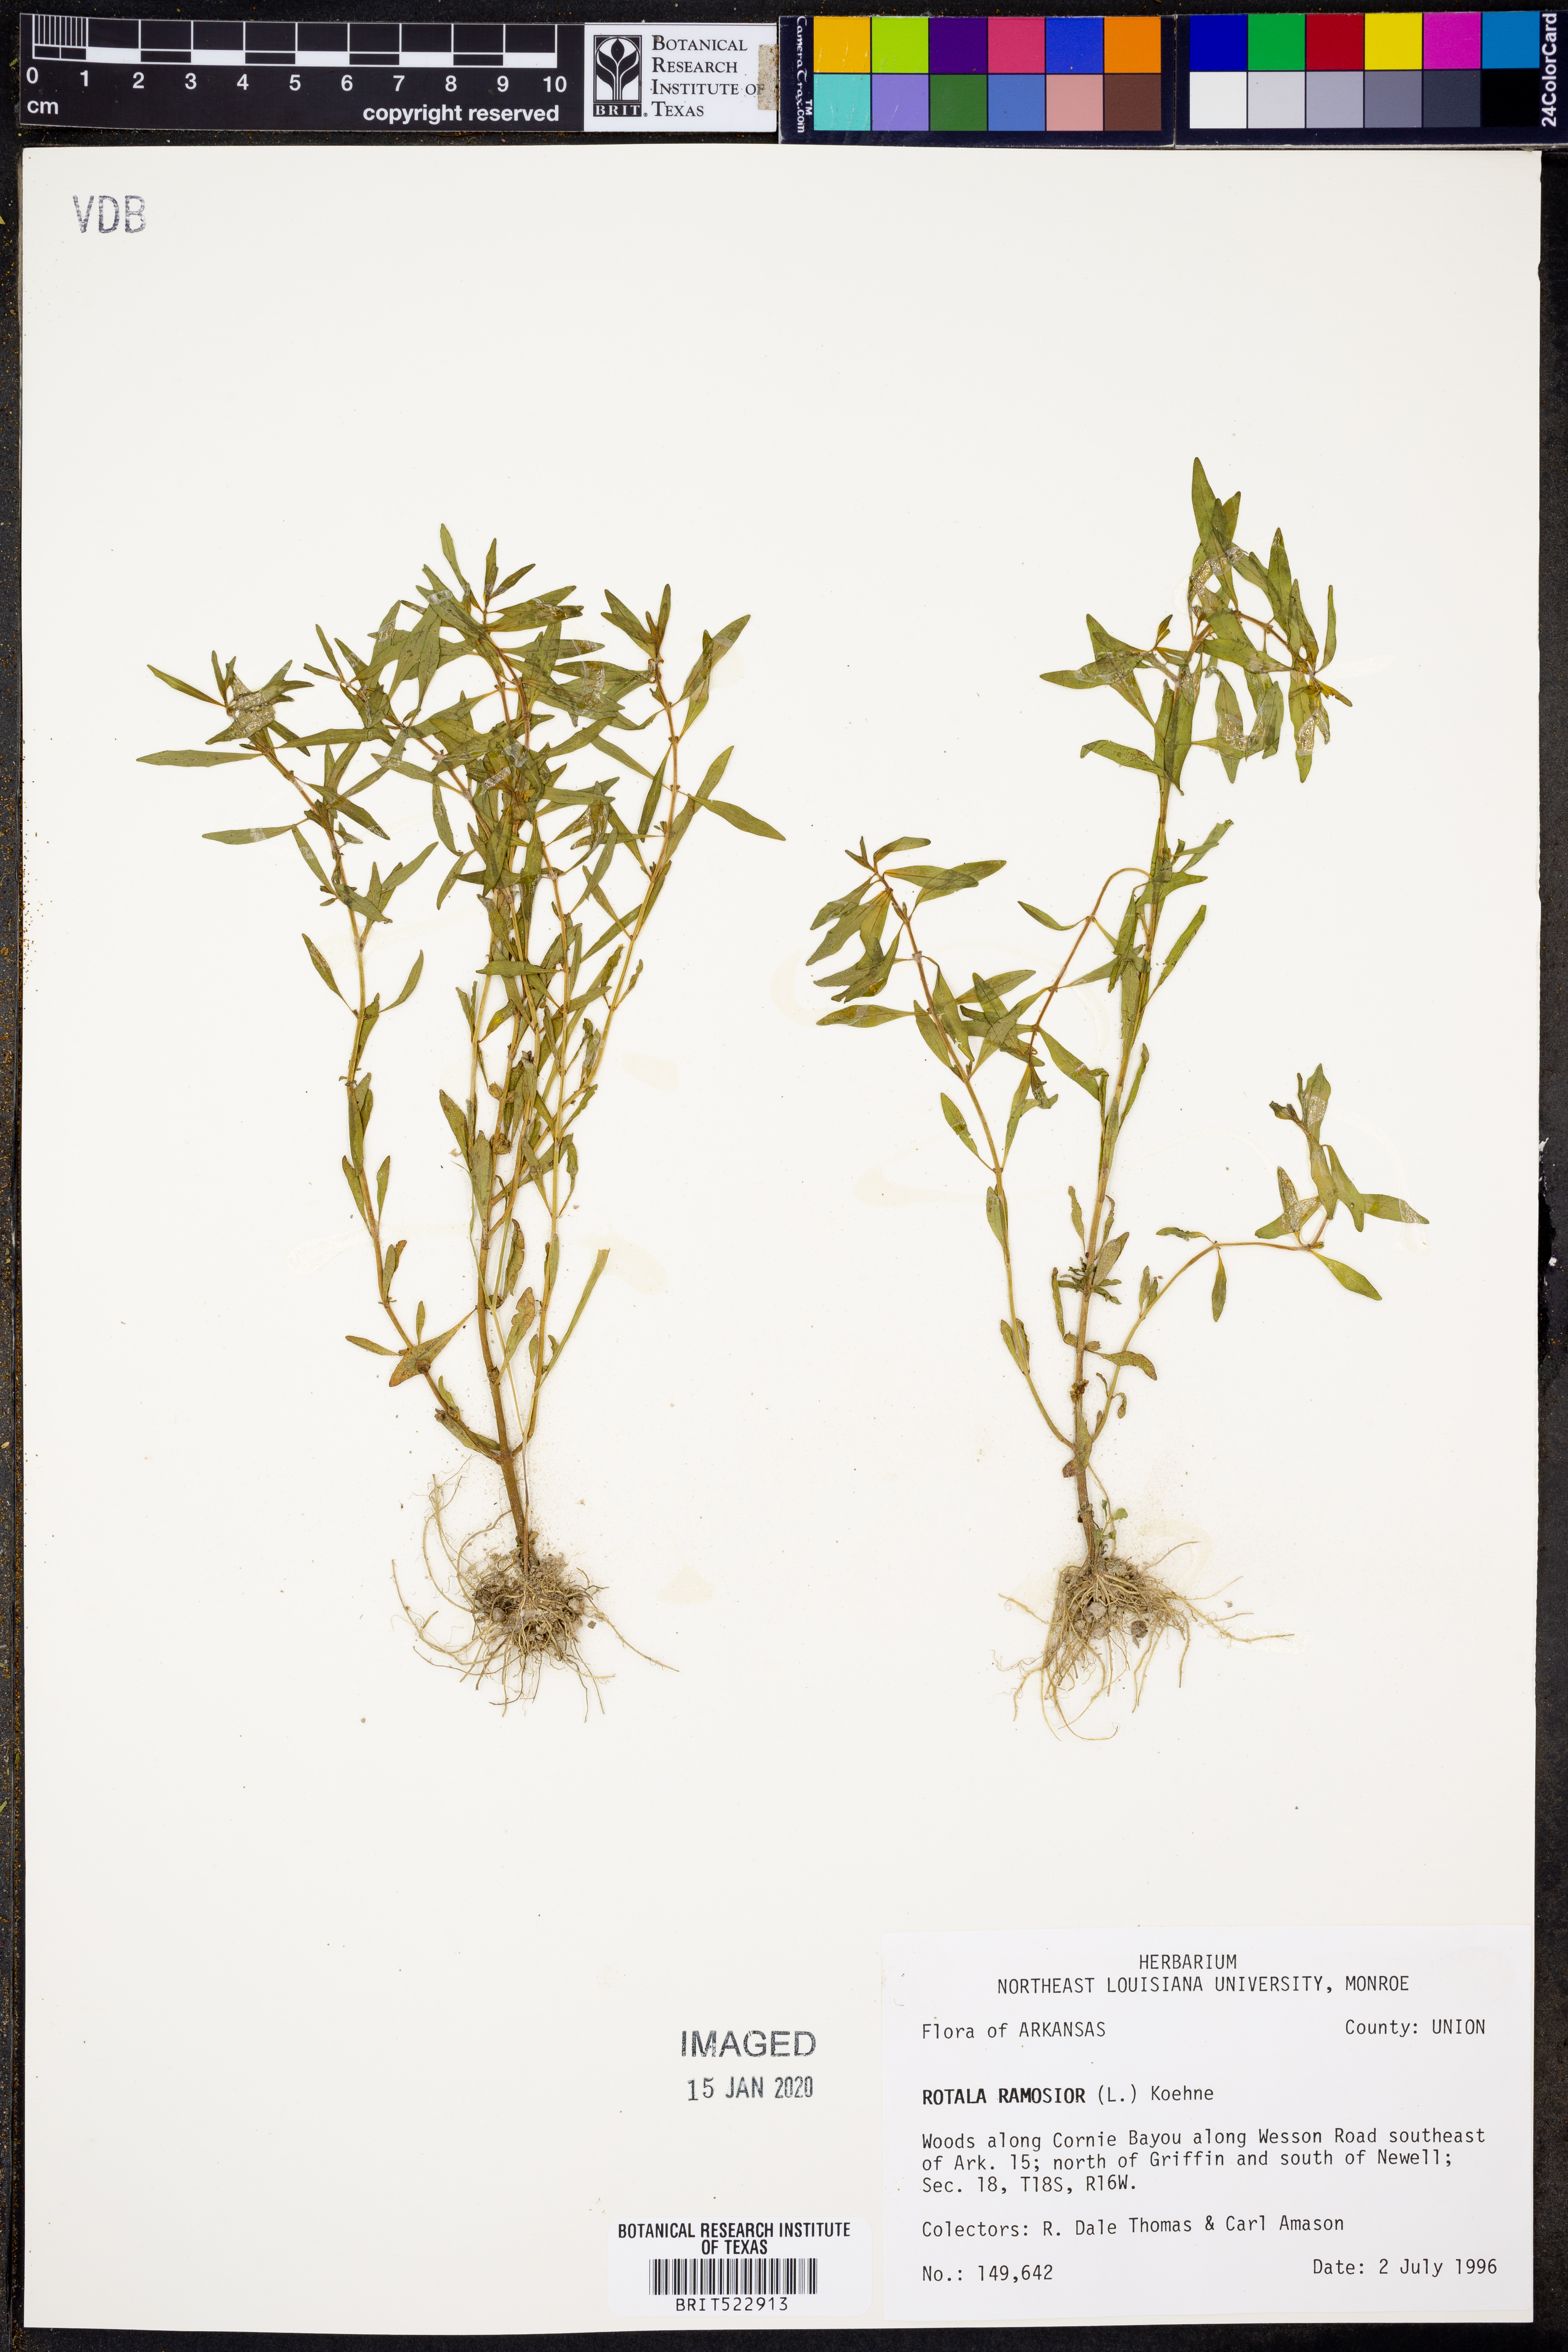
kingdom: Plantae
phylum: Tracheophyta
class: Magnoliopsida
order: Myrtales
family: Lythraceae
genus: Rotala
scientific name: Rotala ramosior
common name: Lowland rotala
